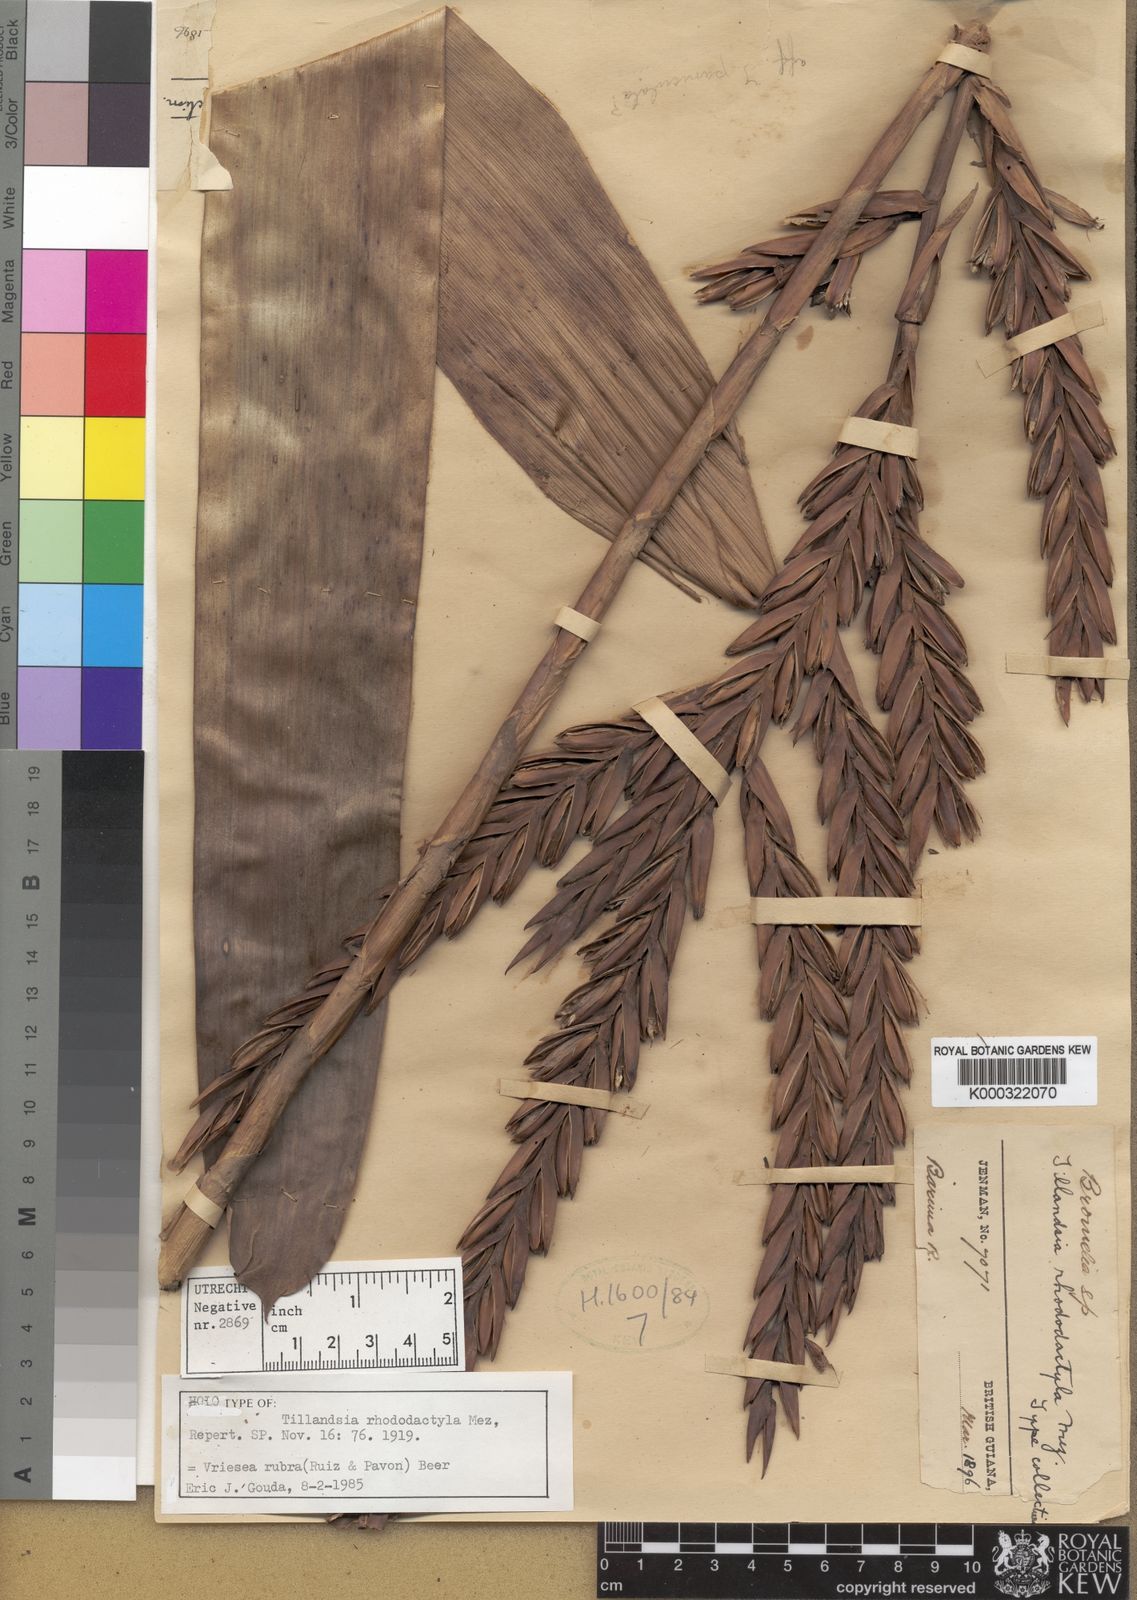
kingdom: Plantae
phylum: Tracheophyta
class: Liliopsida
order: Poales
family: Bromeliaceae
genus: Vriesea
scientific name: Vriesea rubra
